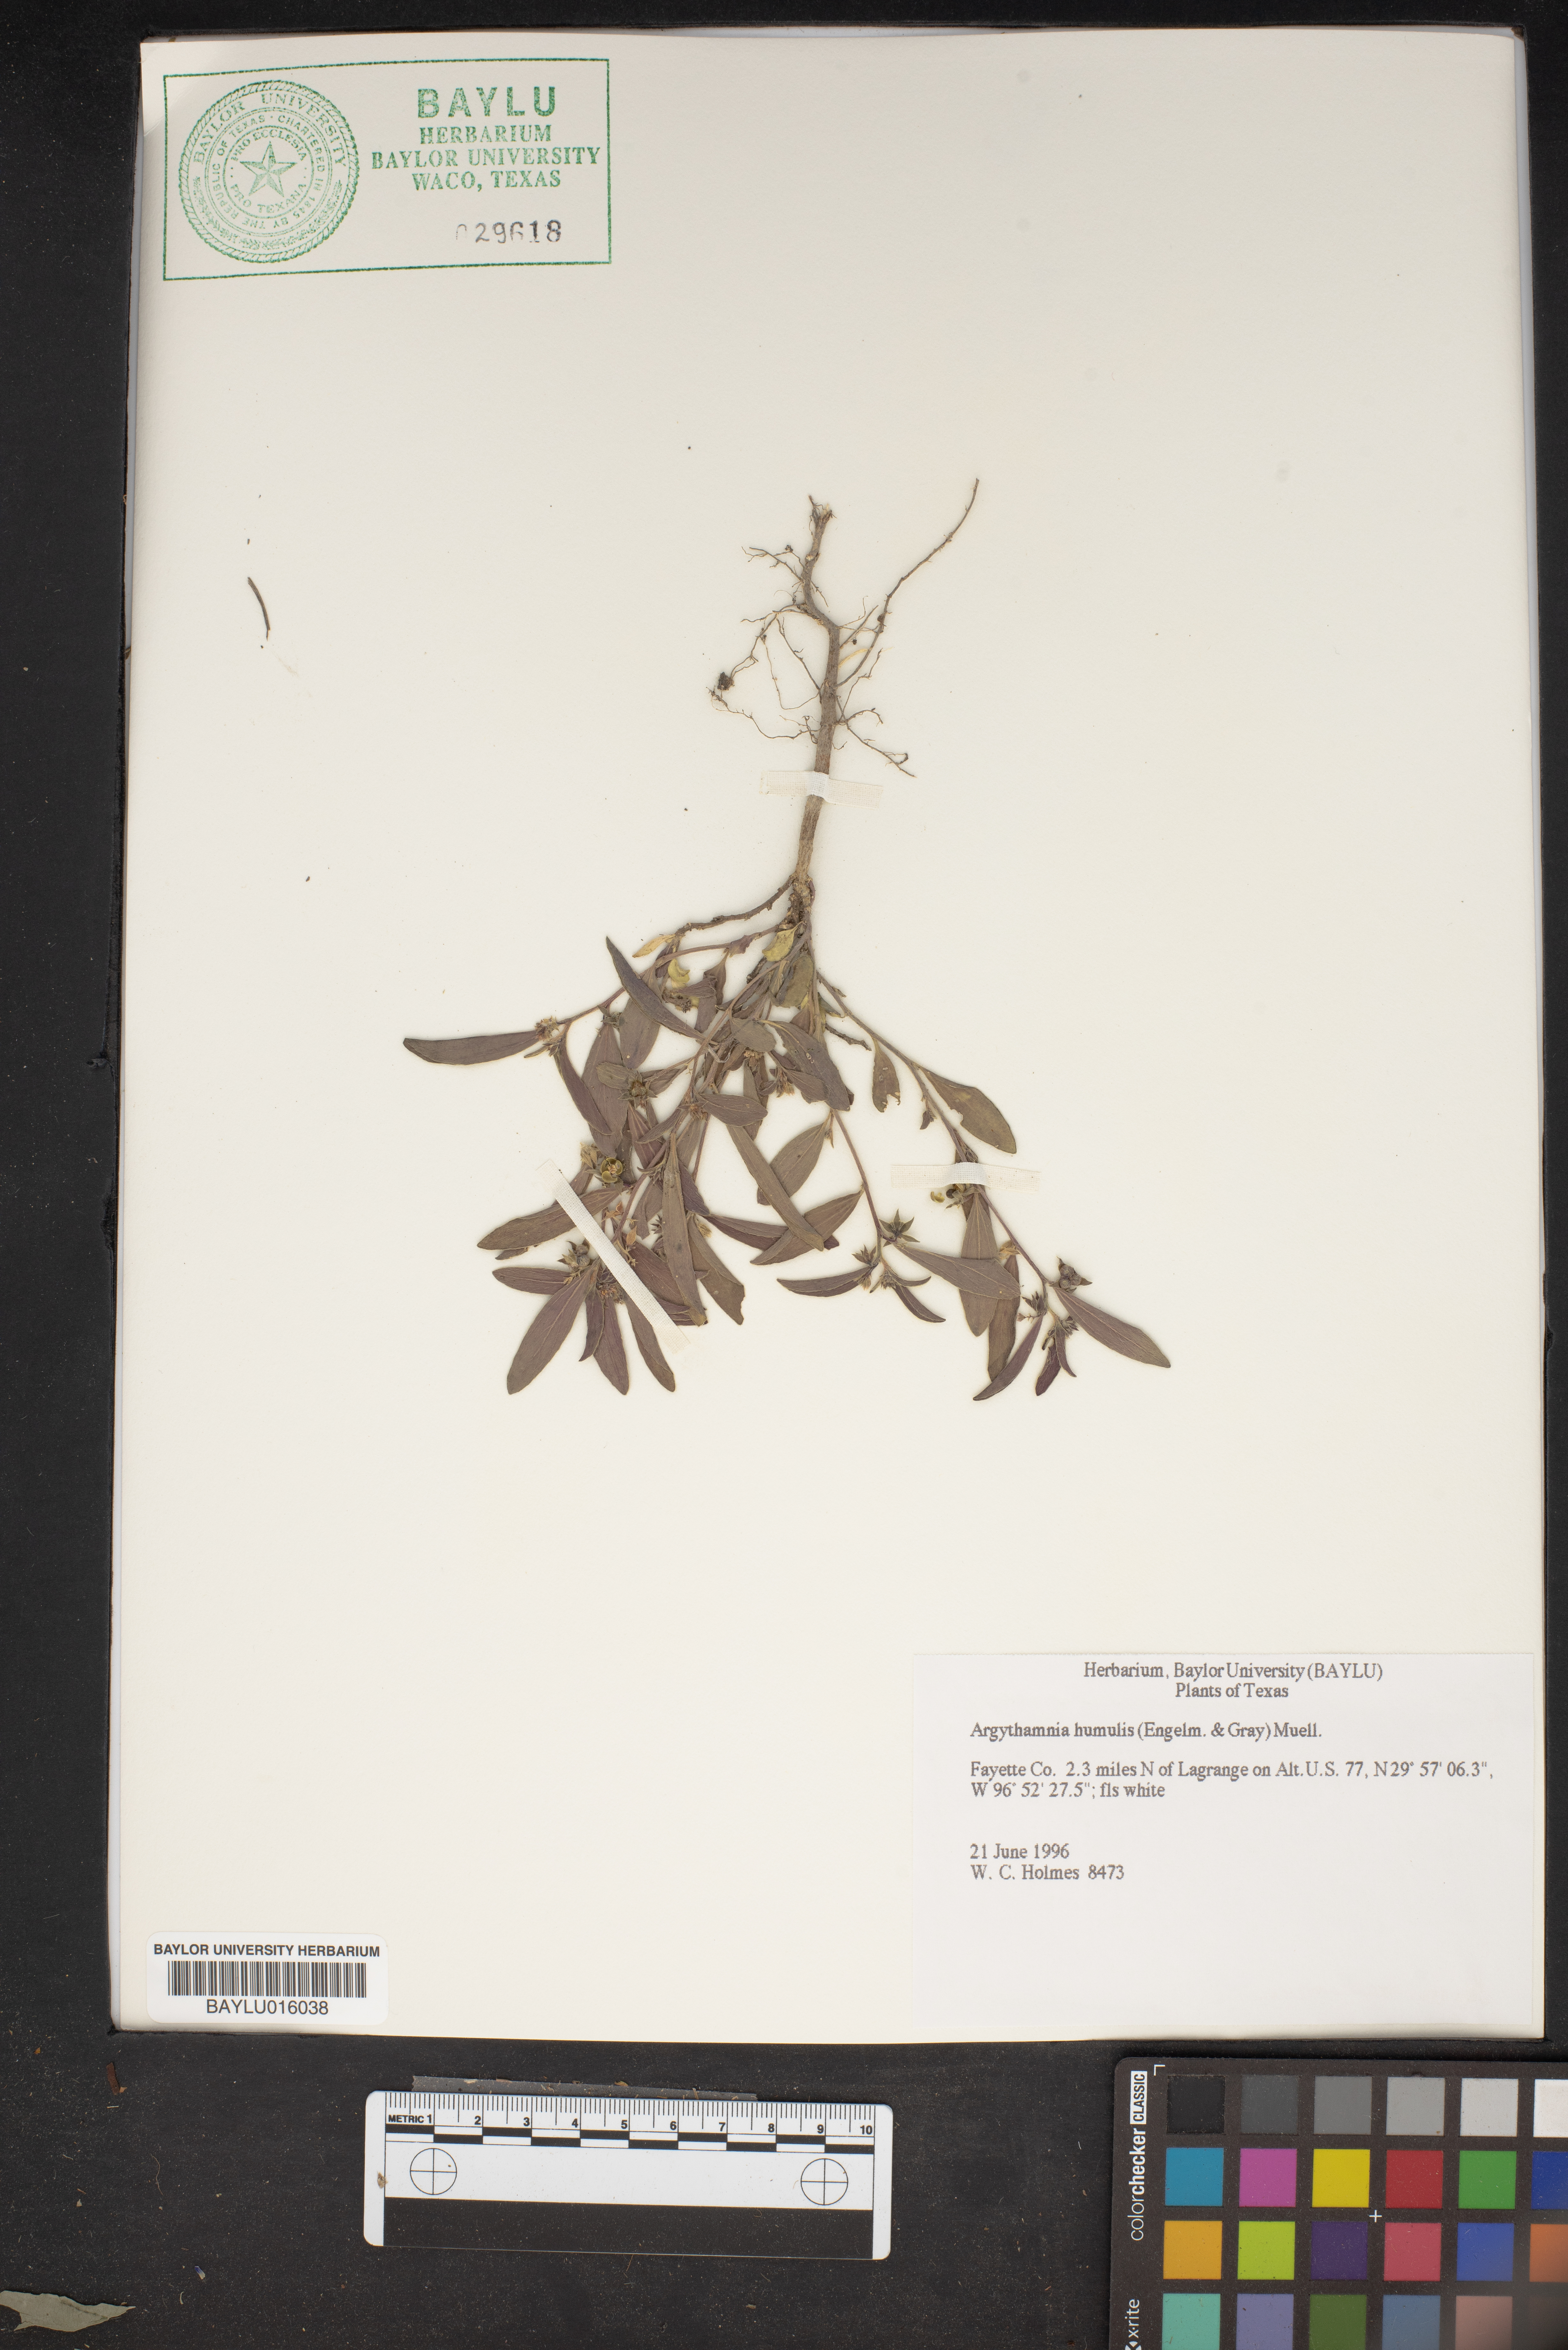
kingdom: Plantae
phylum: Tracheophyta
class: Magnoliopsida
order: Malpighiales
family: Euphorbiaceae
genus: Ditaxis
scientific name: Ditaxis humilis
